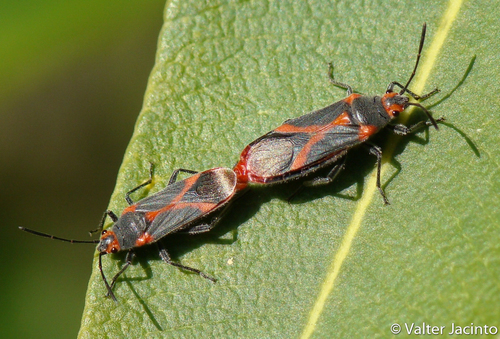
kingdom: Animalia
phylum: Arthropoda
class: Insecta
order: Hemiptera
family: Lygaeidae
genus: Caenocoris
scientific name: Caenocoris nerii
